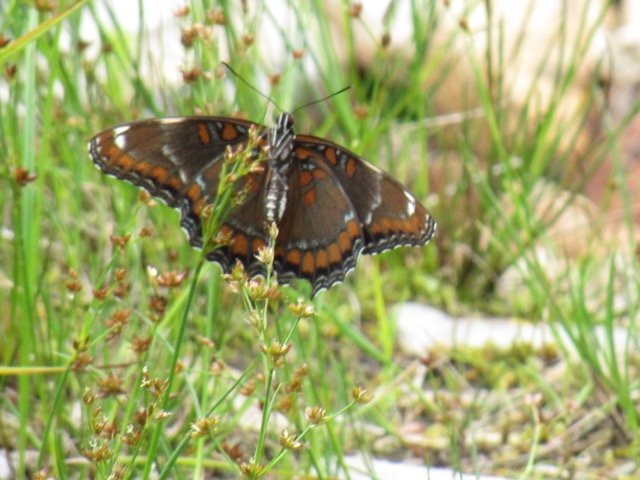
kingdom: Animalia
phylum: Arthropoda
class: Insecta
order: Lepidoptera
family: Nymphalidae
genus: Limenitis
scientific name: Limenitis
